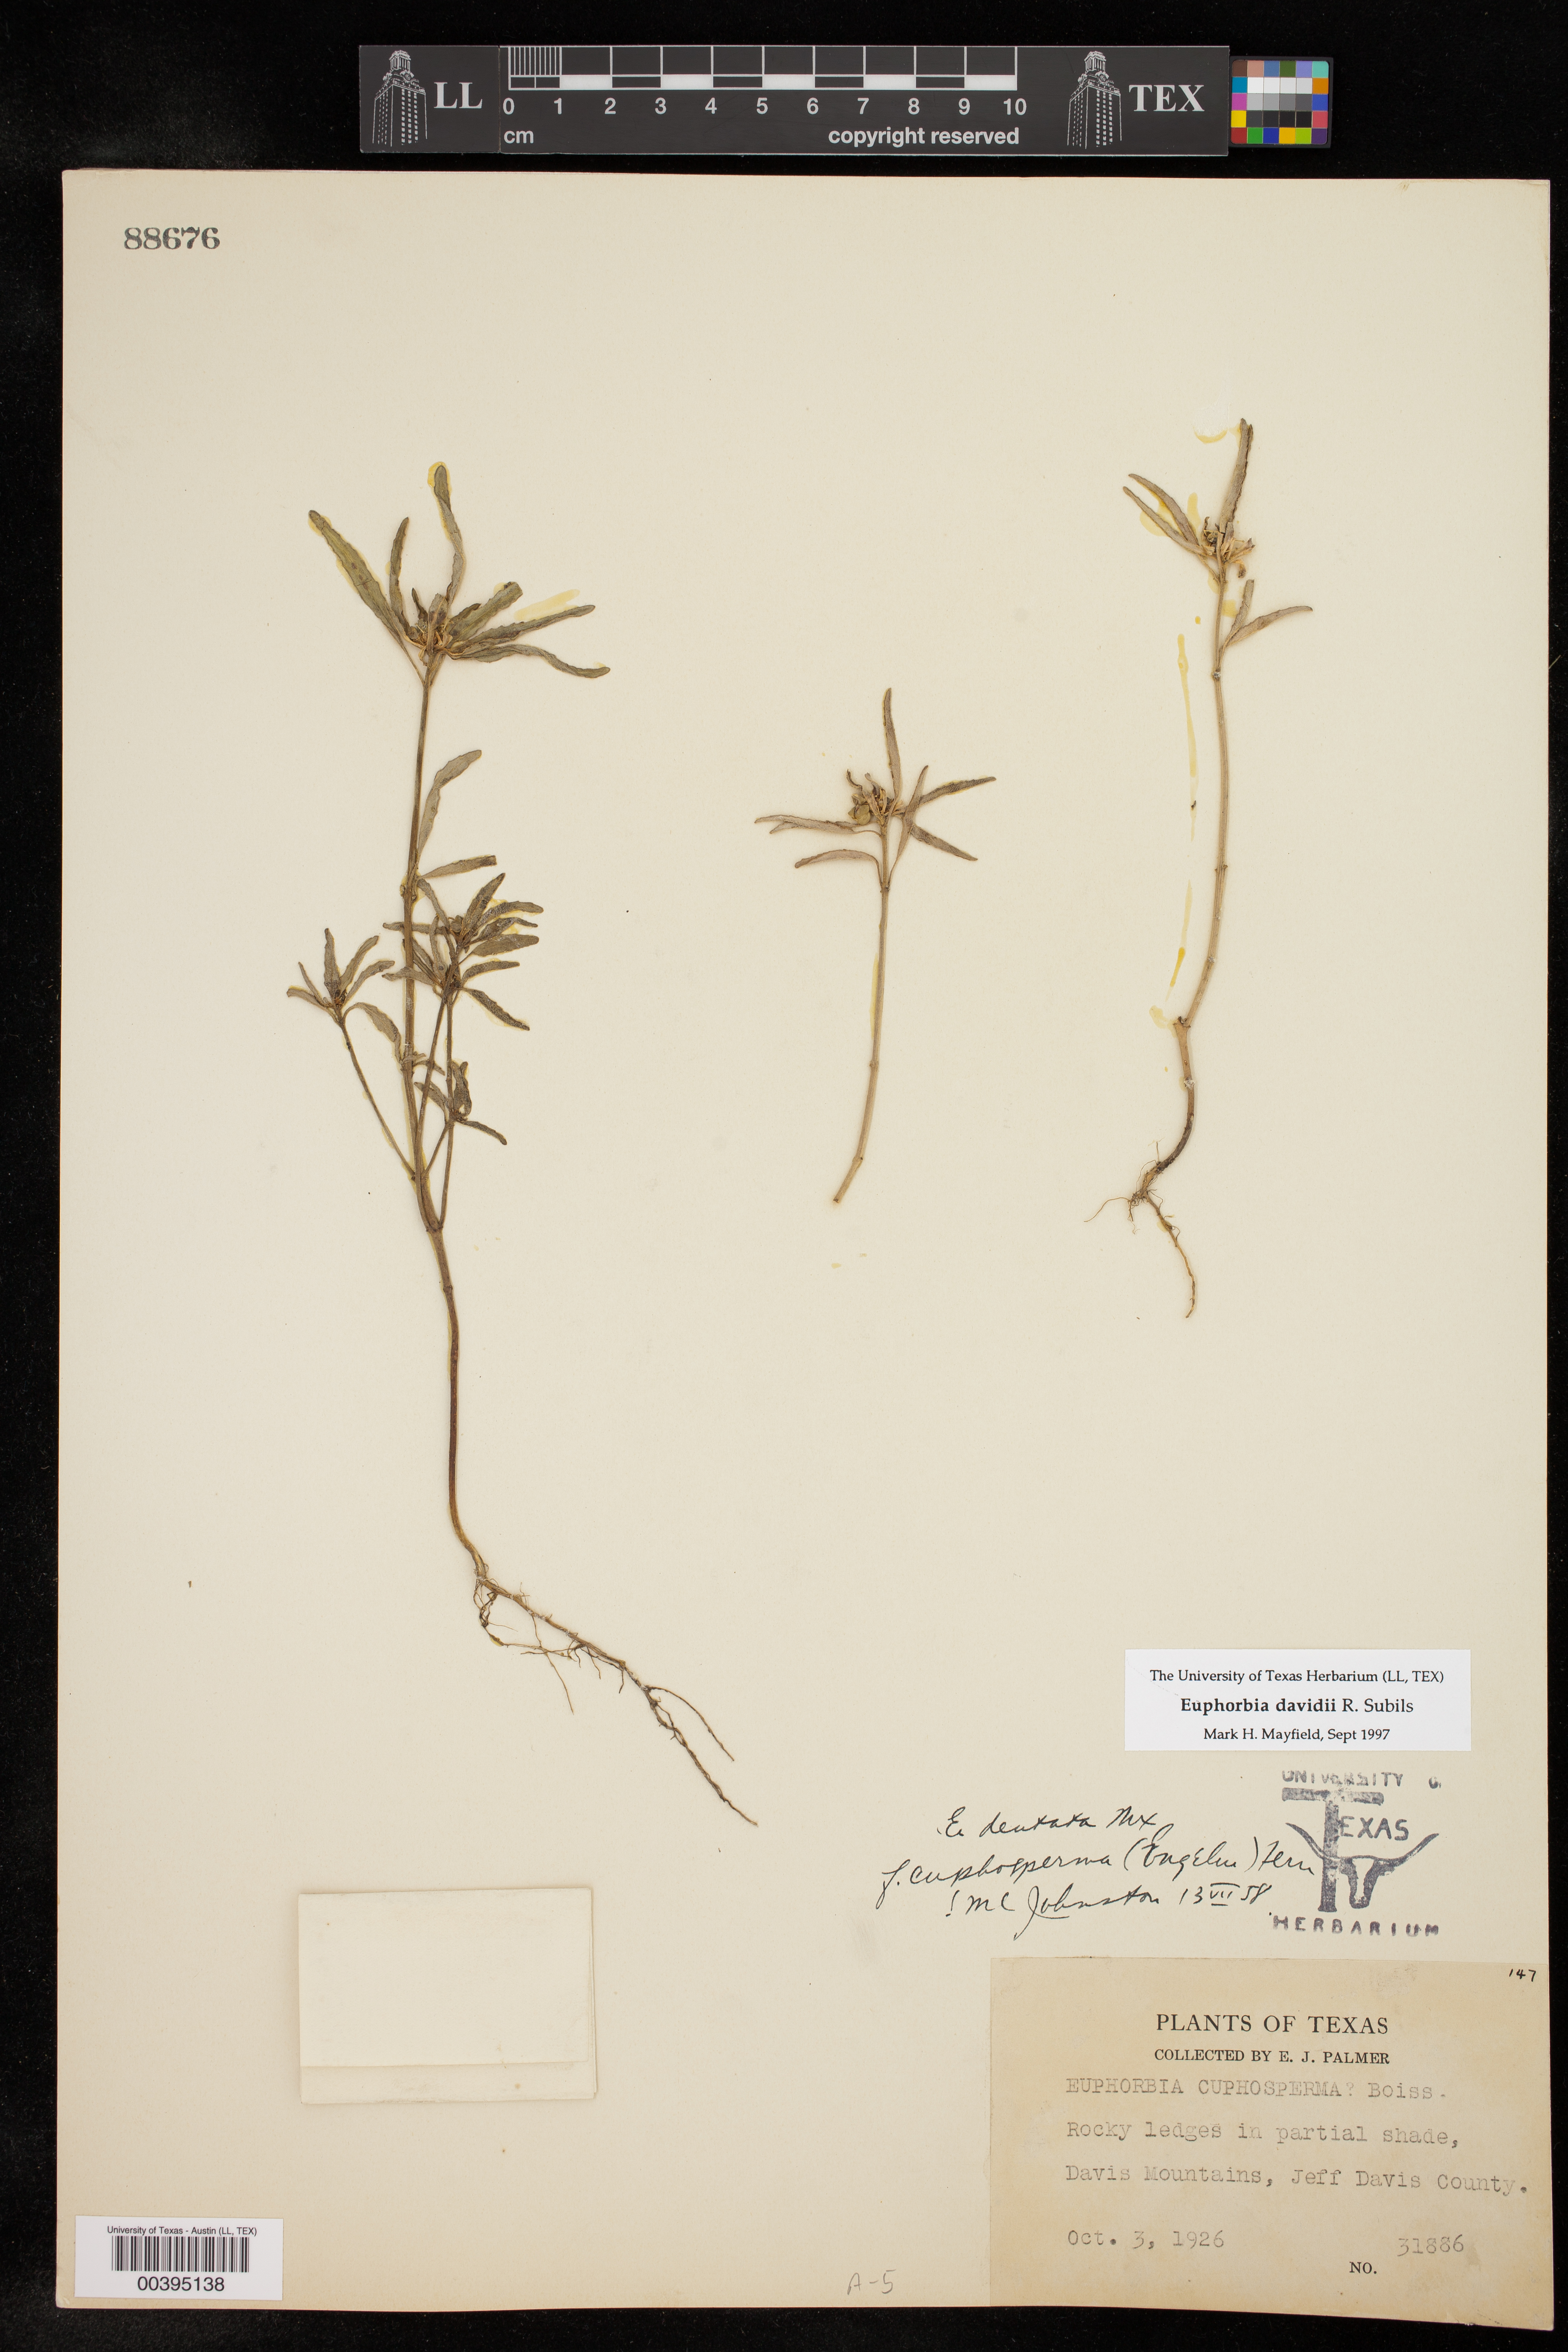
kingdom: Plantae
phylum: Tracheophyta
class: Magnoliopsida
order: Malpighiales
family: Euphorbiaceae
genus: Euphorbia
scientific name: Euphorbia davidii
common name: David's spurge
